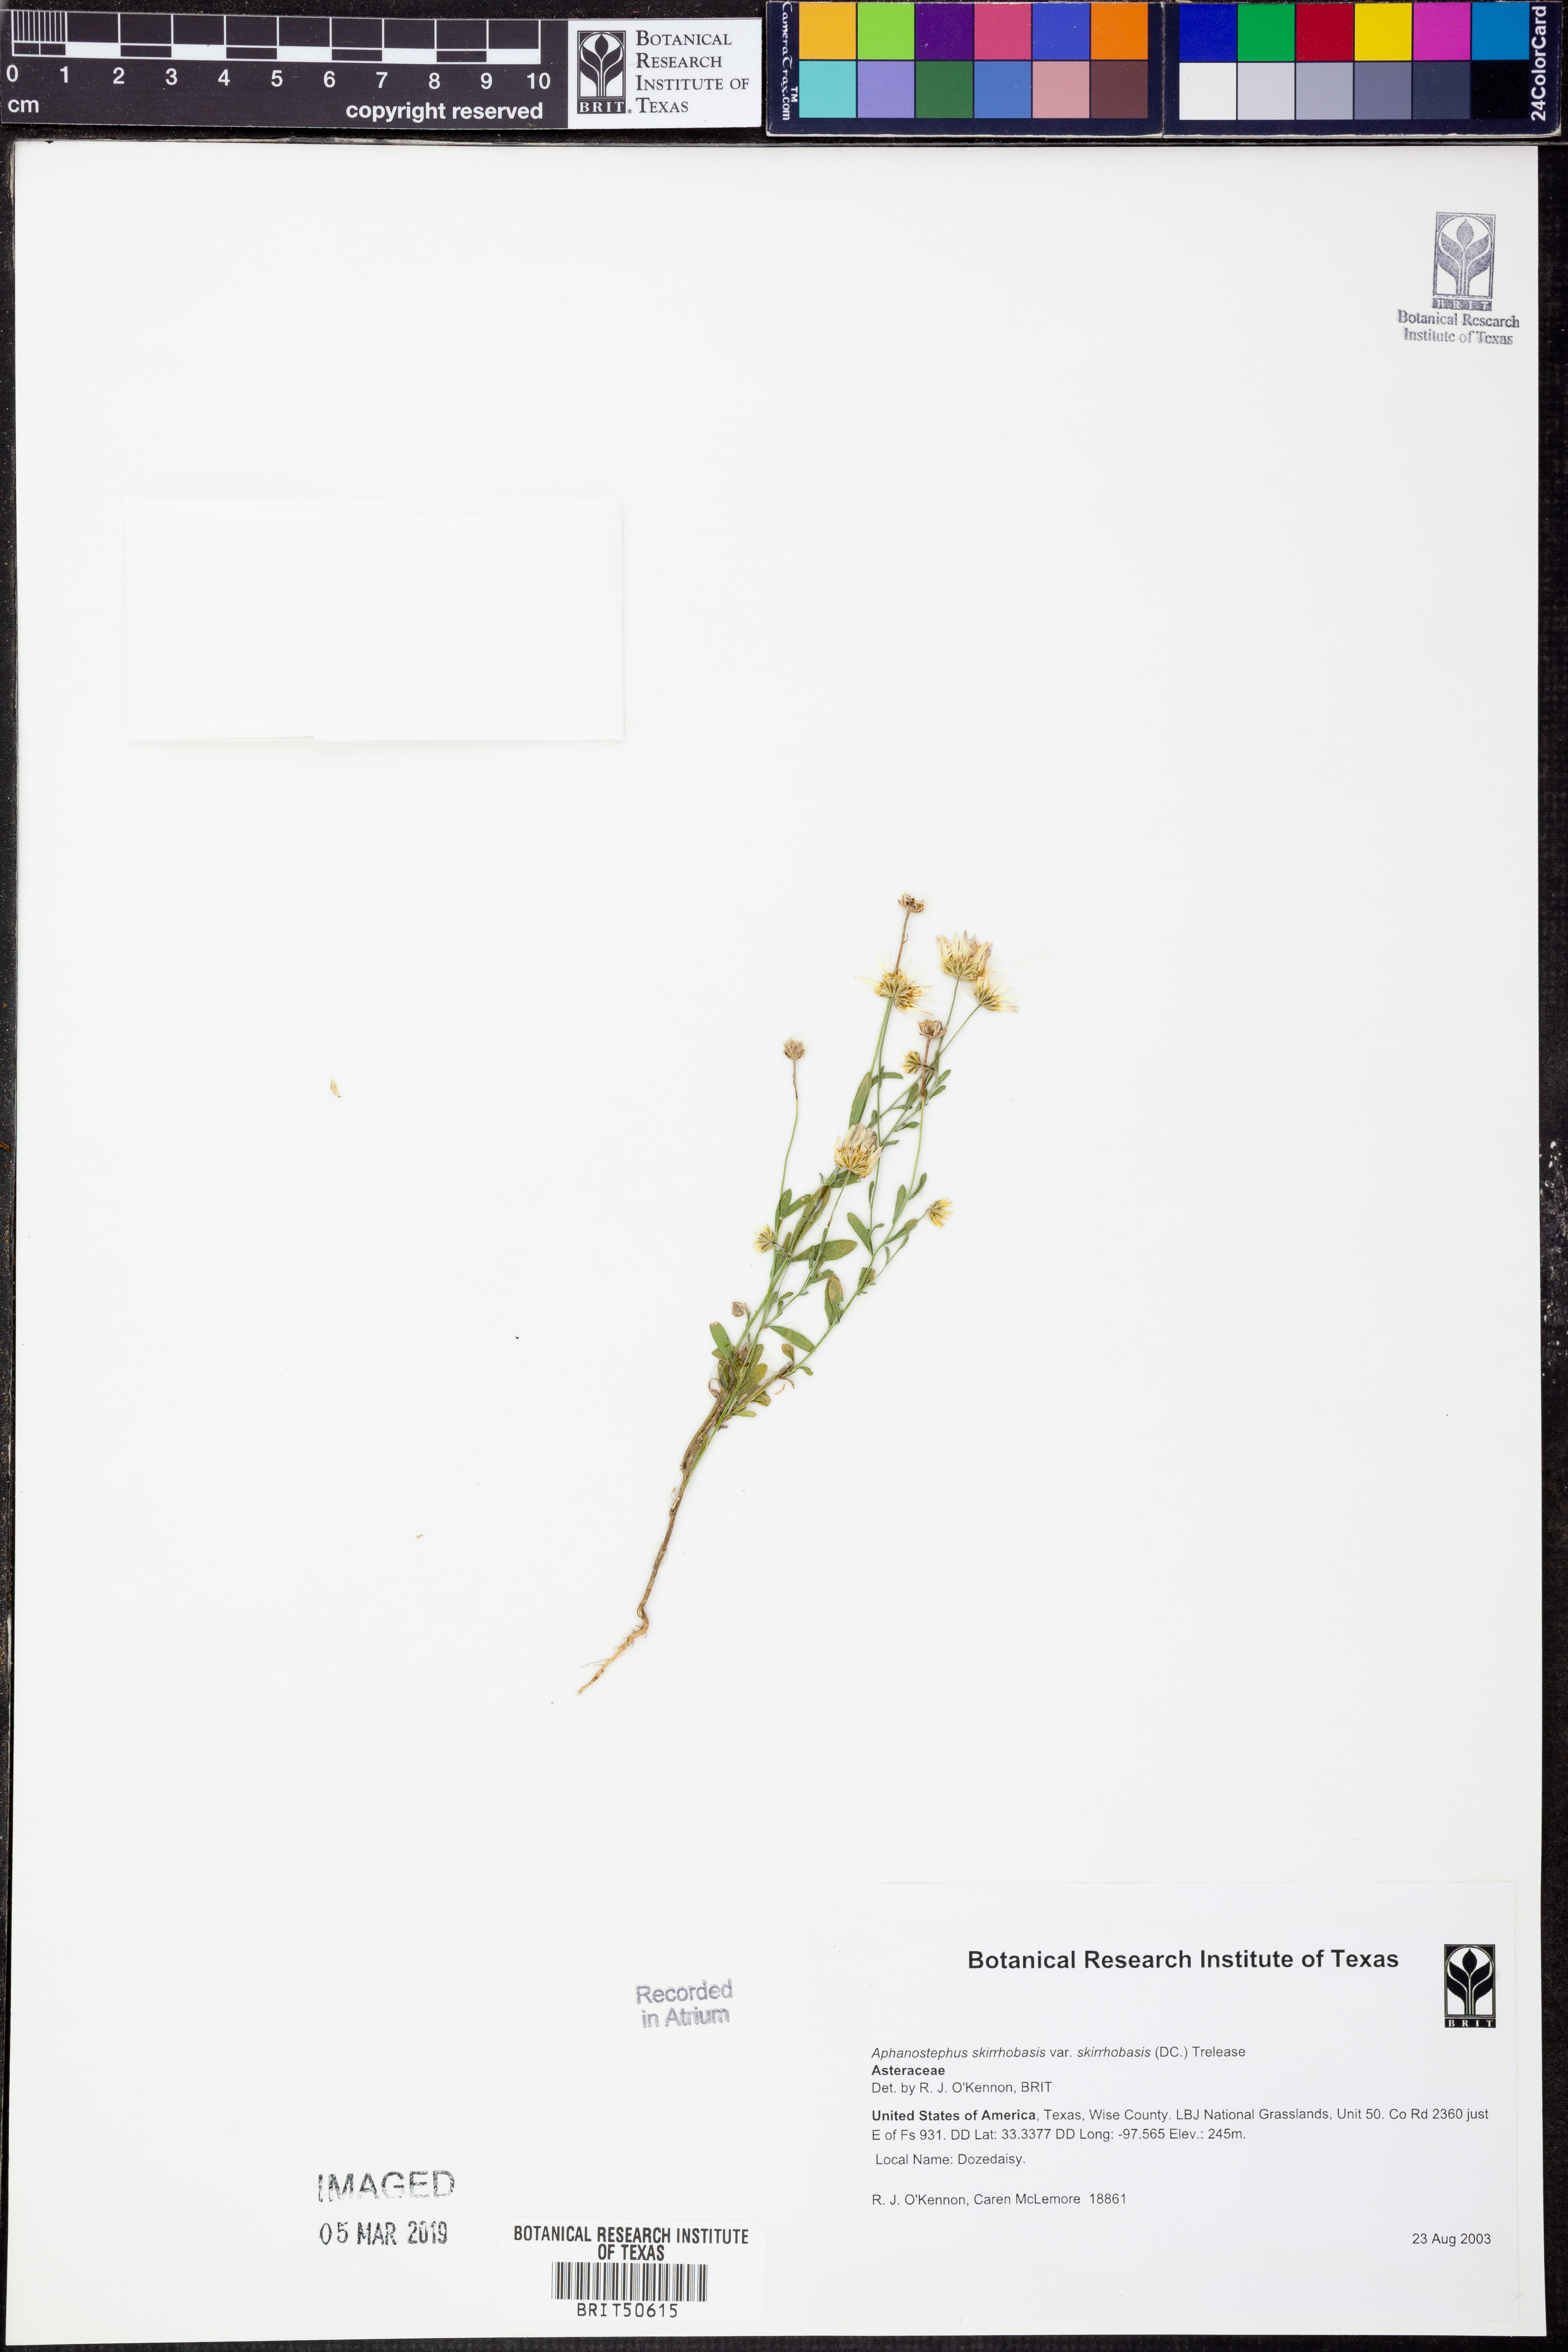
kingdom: Plantae
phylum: Tracheophyta
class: Magnoliopsida
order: Asterales
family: Asteraceae
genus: Aphanostephus
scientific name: Aphanostephus skirrhobasis
